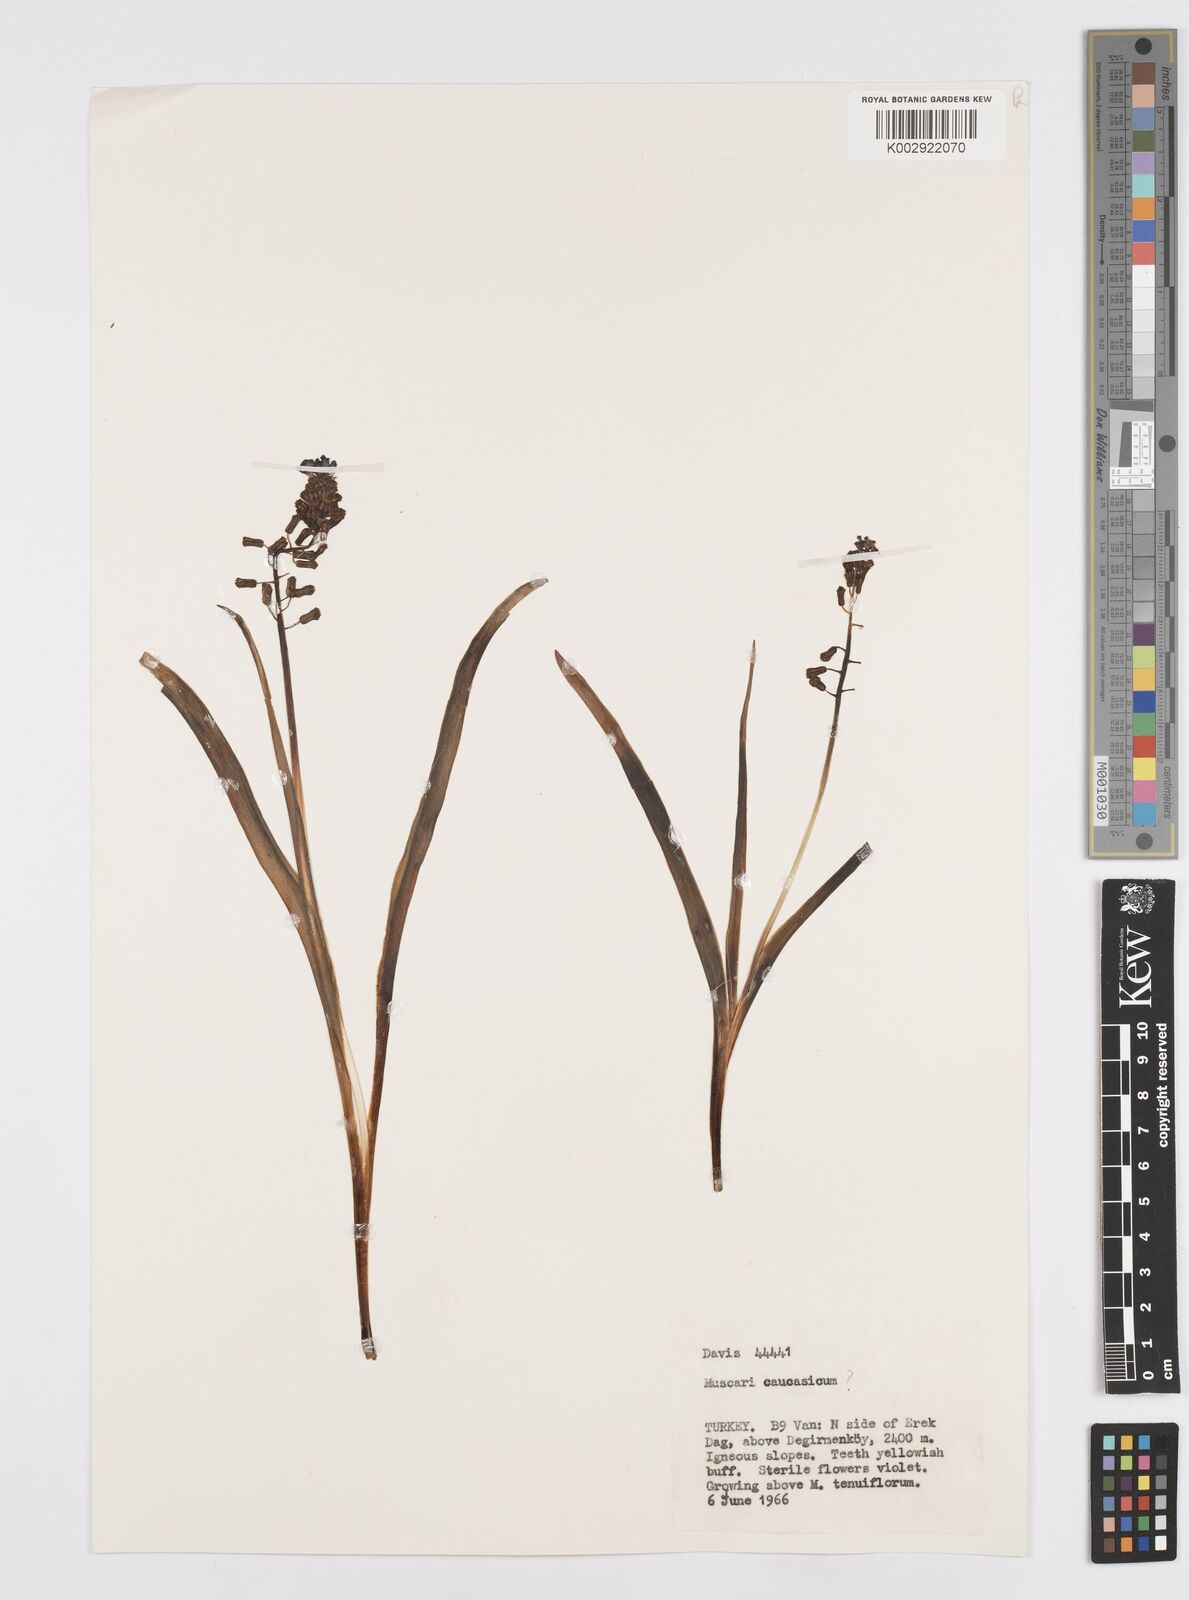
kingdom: Plantae
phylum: Tracheophyta
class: Liliopsida
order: Asparagales
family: Asparagaceae
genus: Muscari
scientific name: Muscari caucasicum
